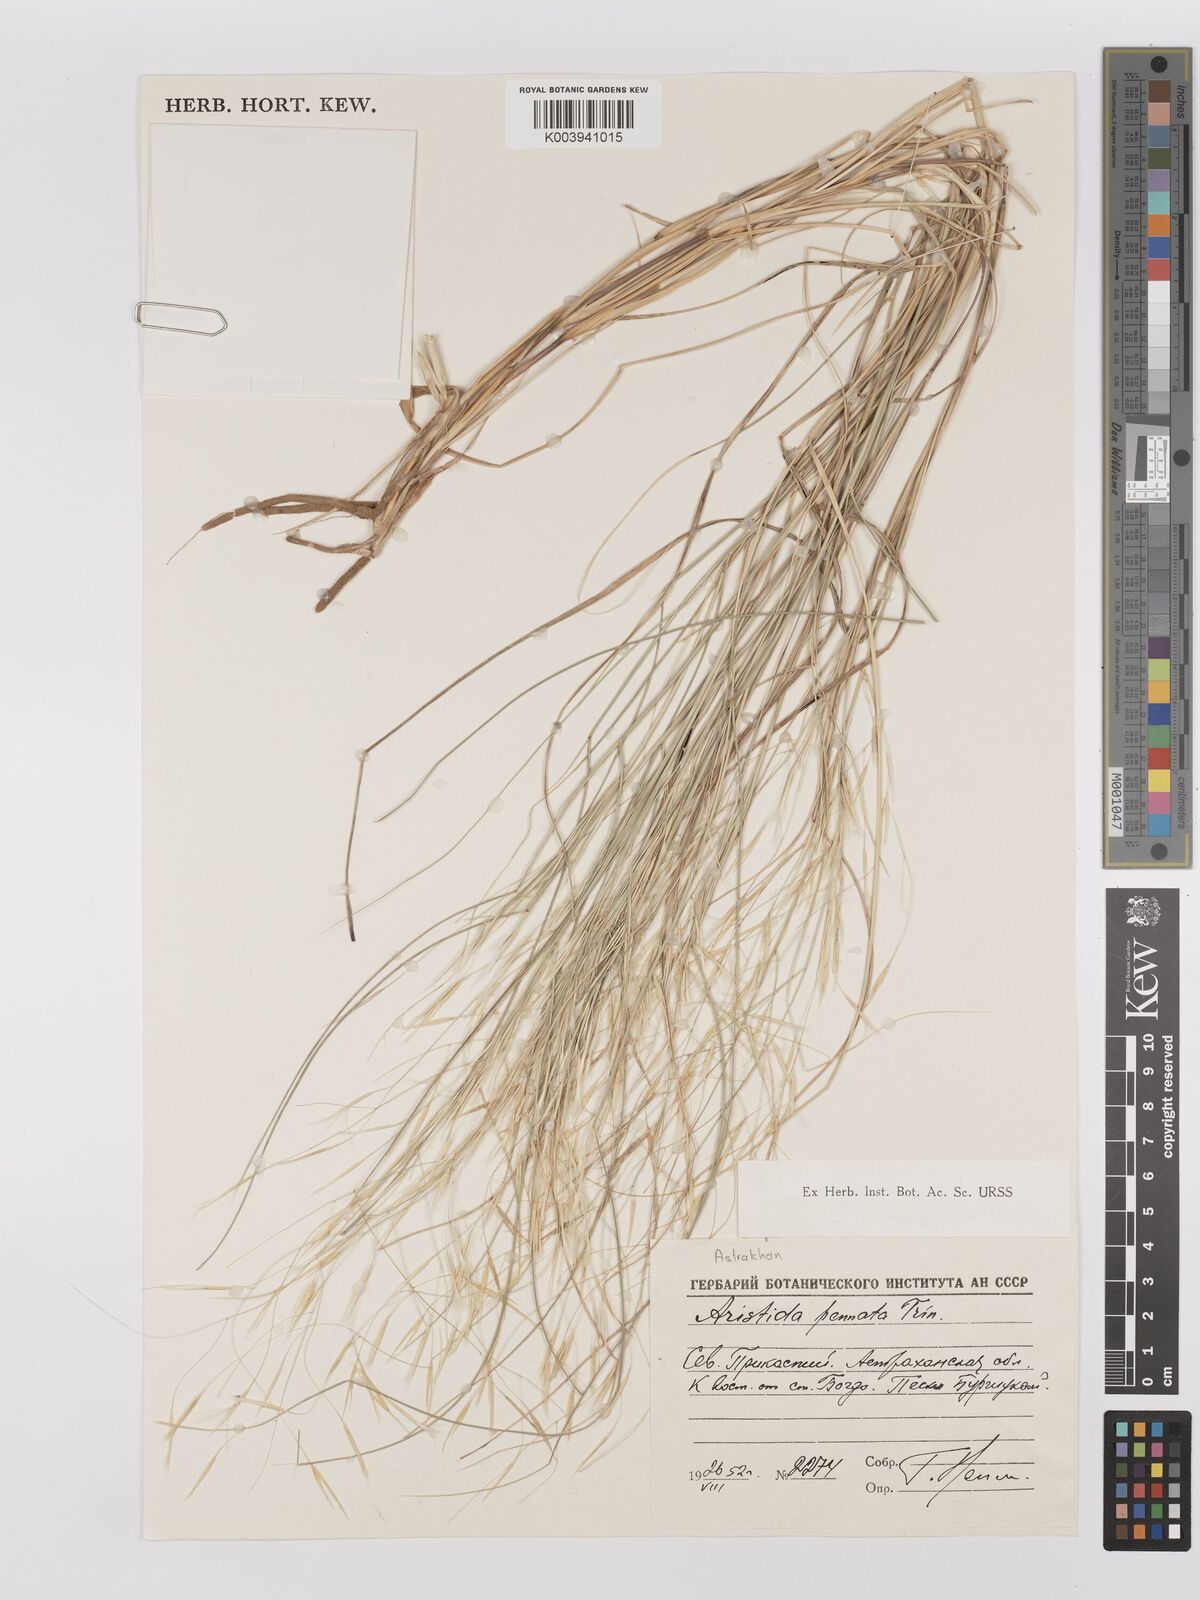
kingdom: Plantae
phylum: Tracheophyta
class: Liliopsida
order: Poales
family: Poaceae
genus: Stipagrostis
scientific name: Stipagrostis pennata
